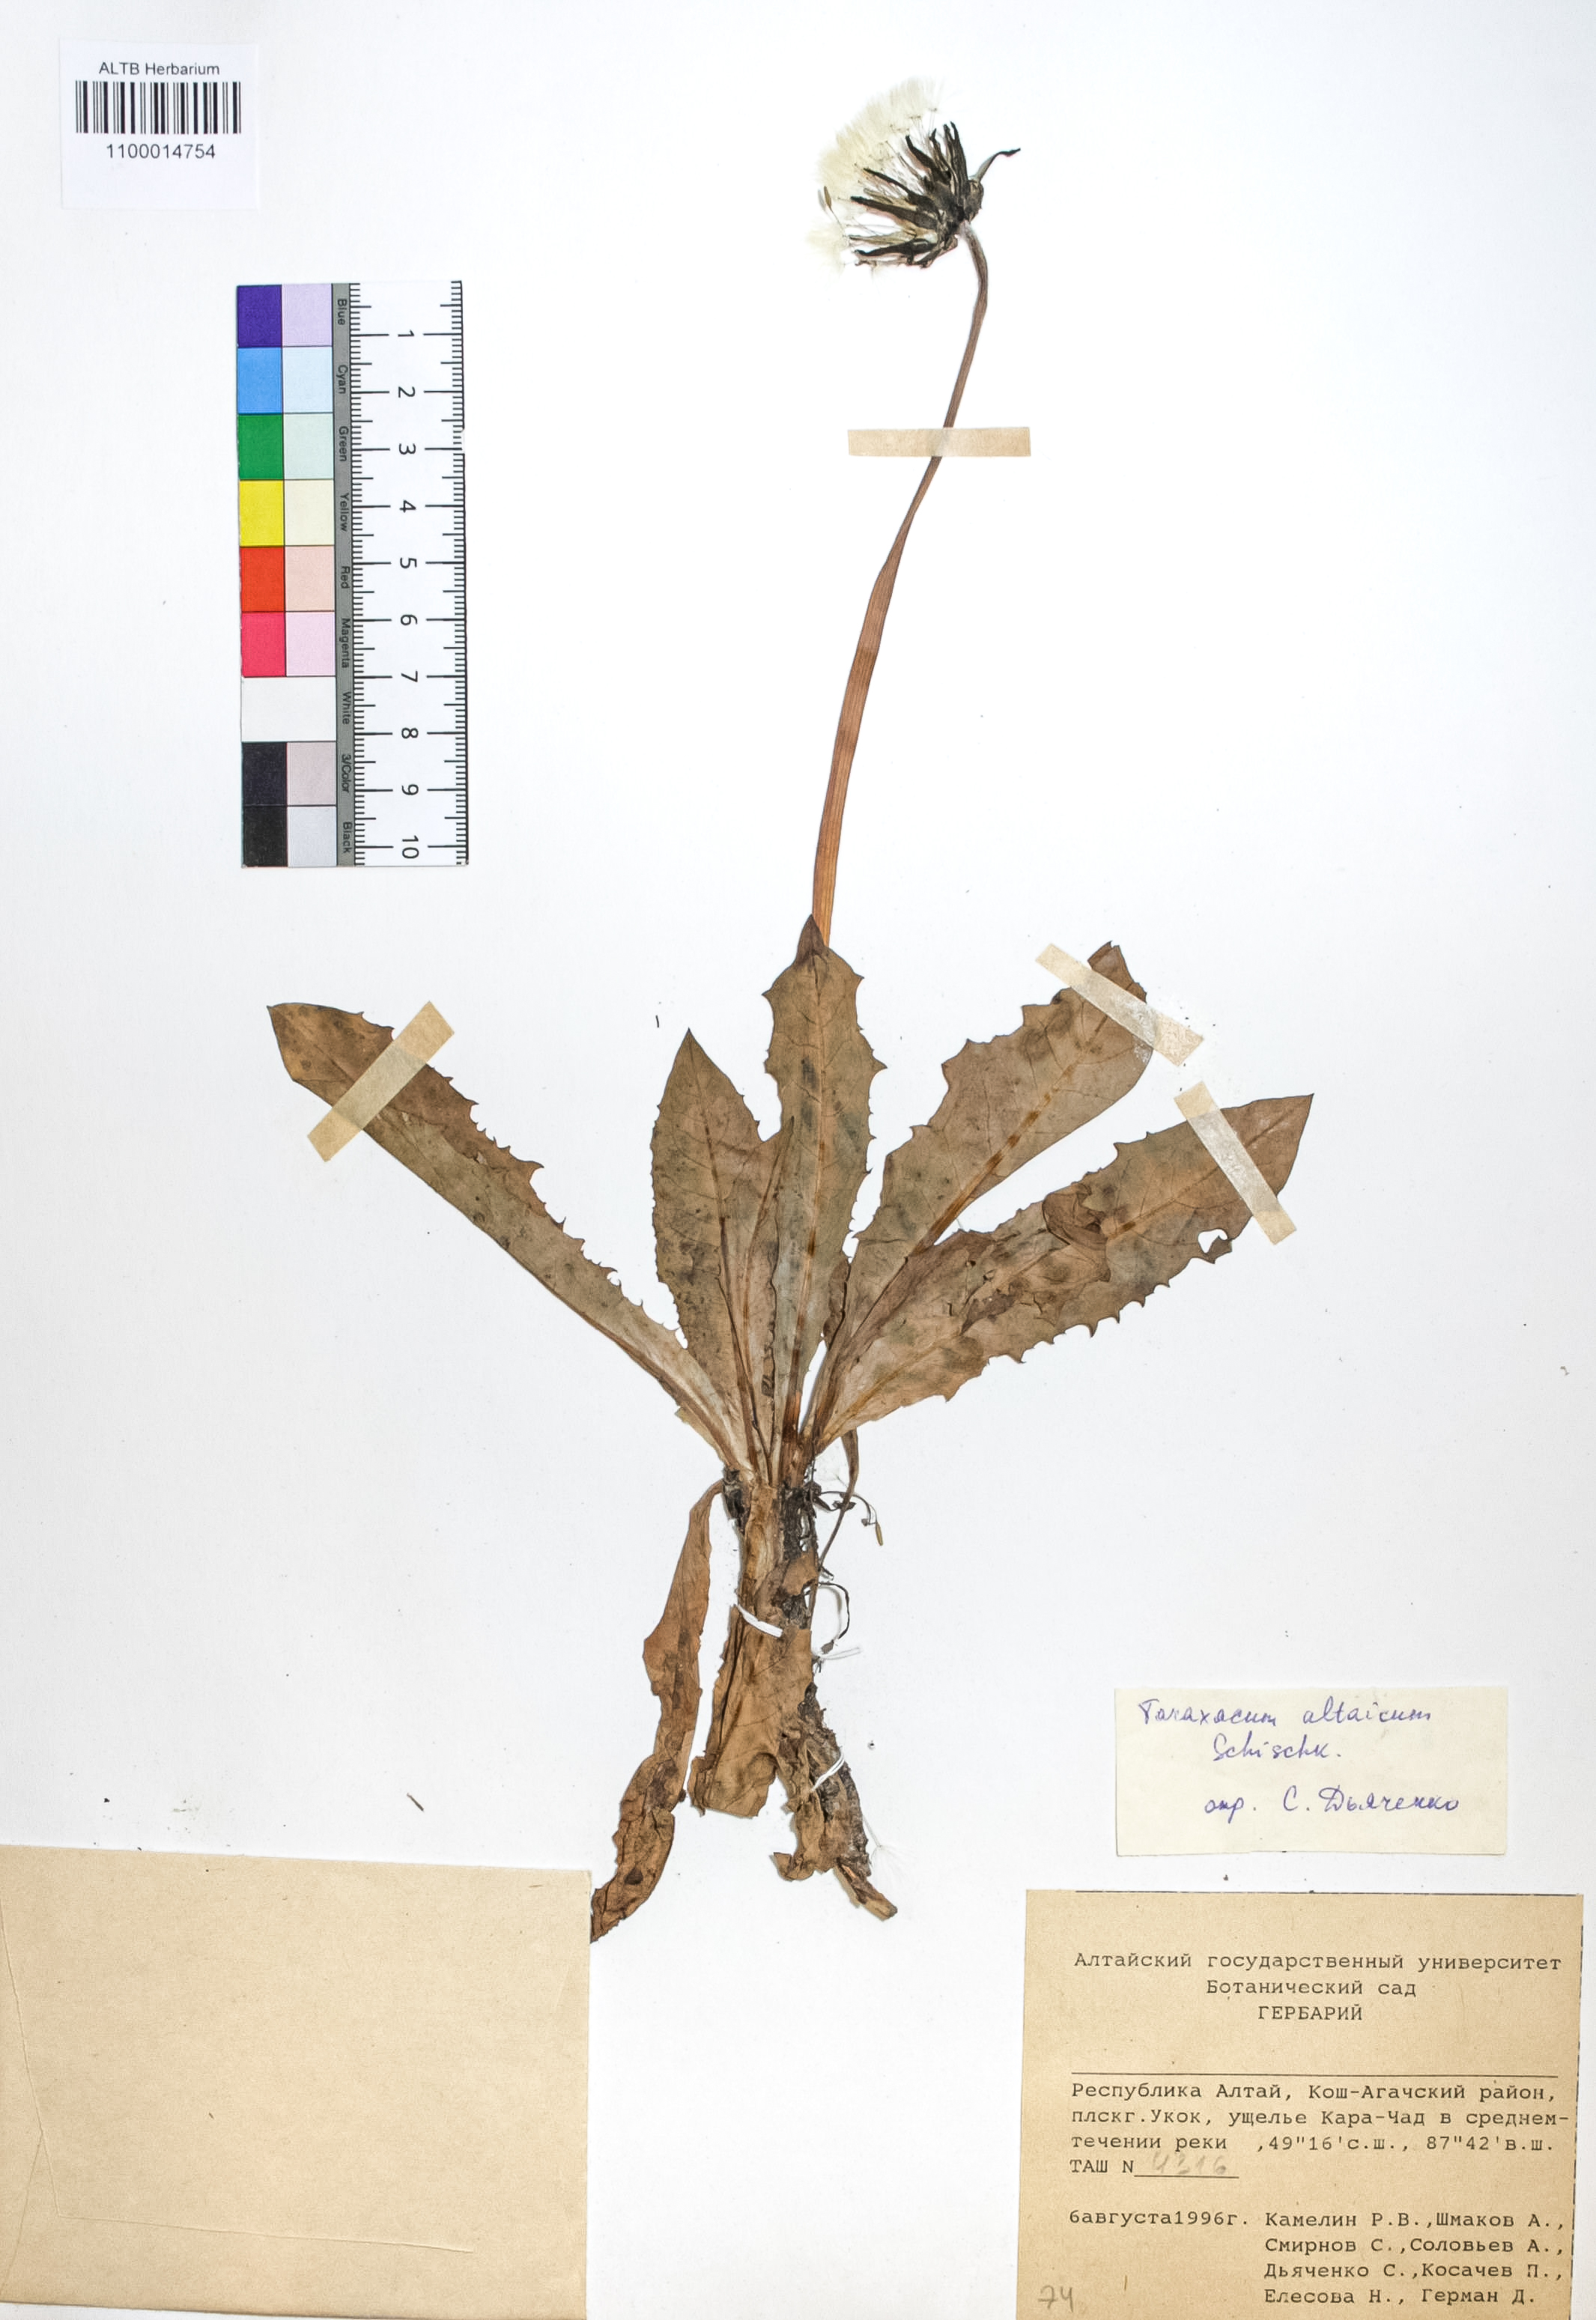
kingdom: Plantae
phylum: Tracheophyta
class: Magnoliopsida
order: Asterales
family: Asteraceae
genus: Taraxacum
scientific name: Taraxacum ceratophorum
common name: Horn-bearing dandelion
